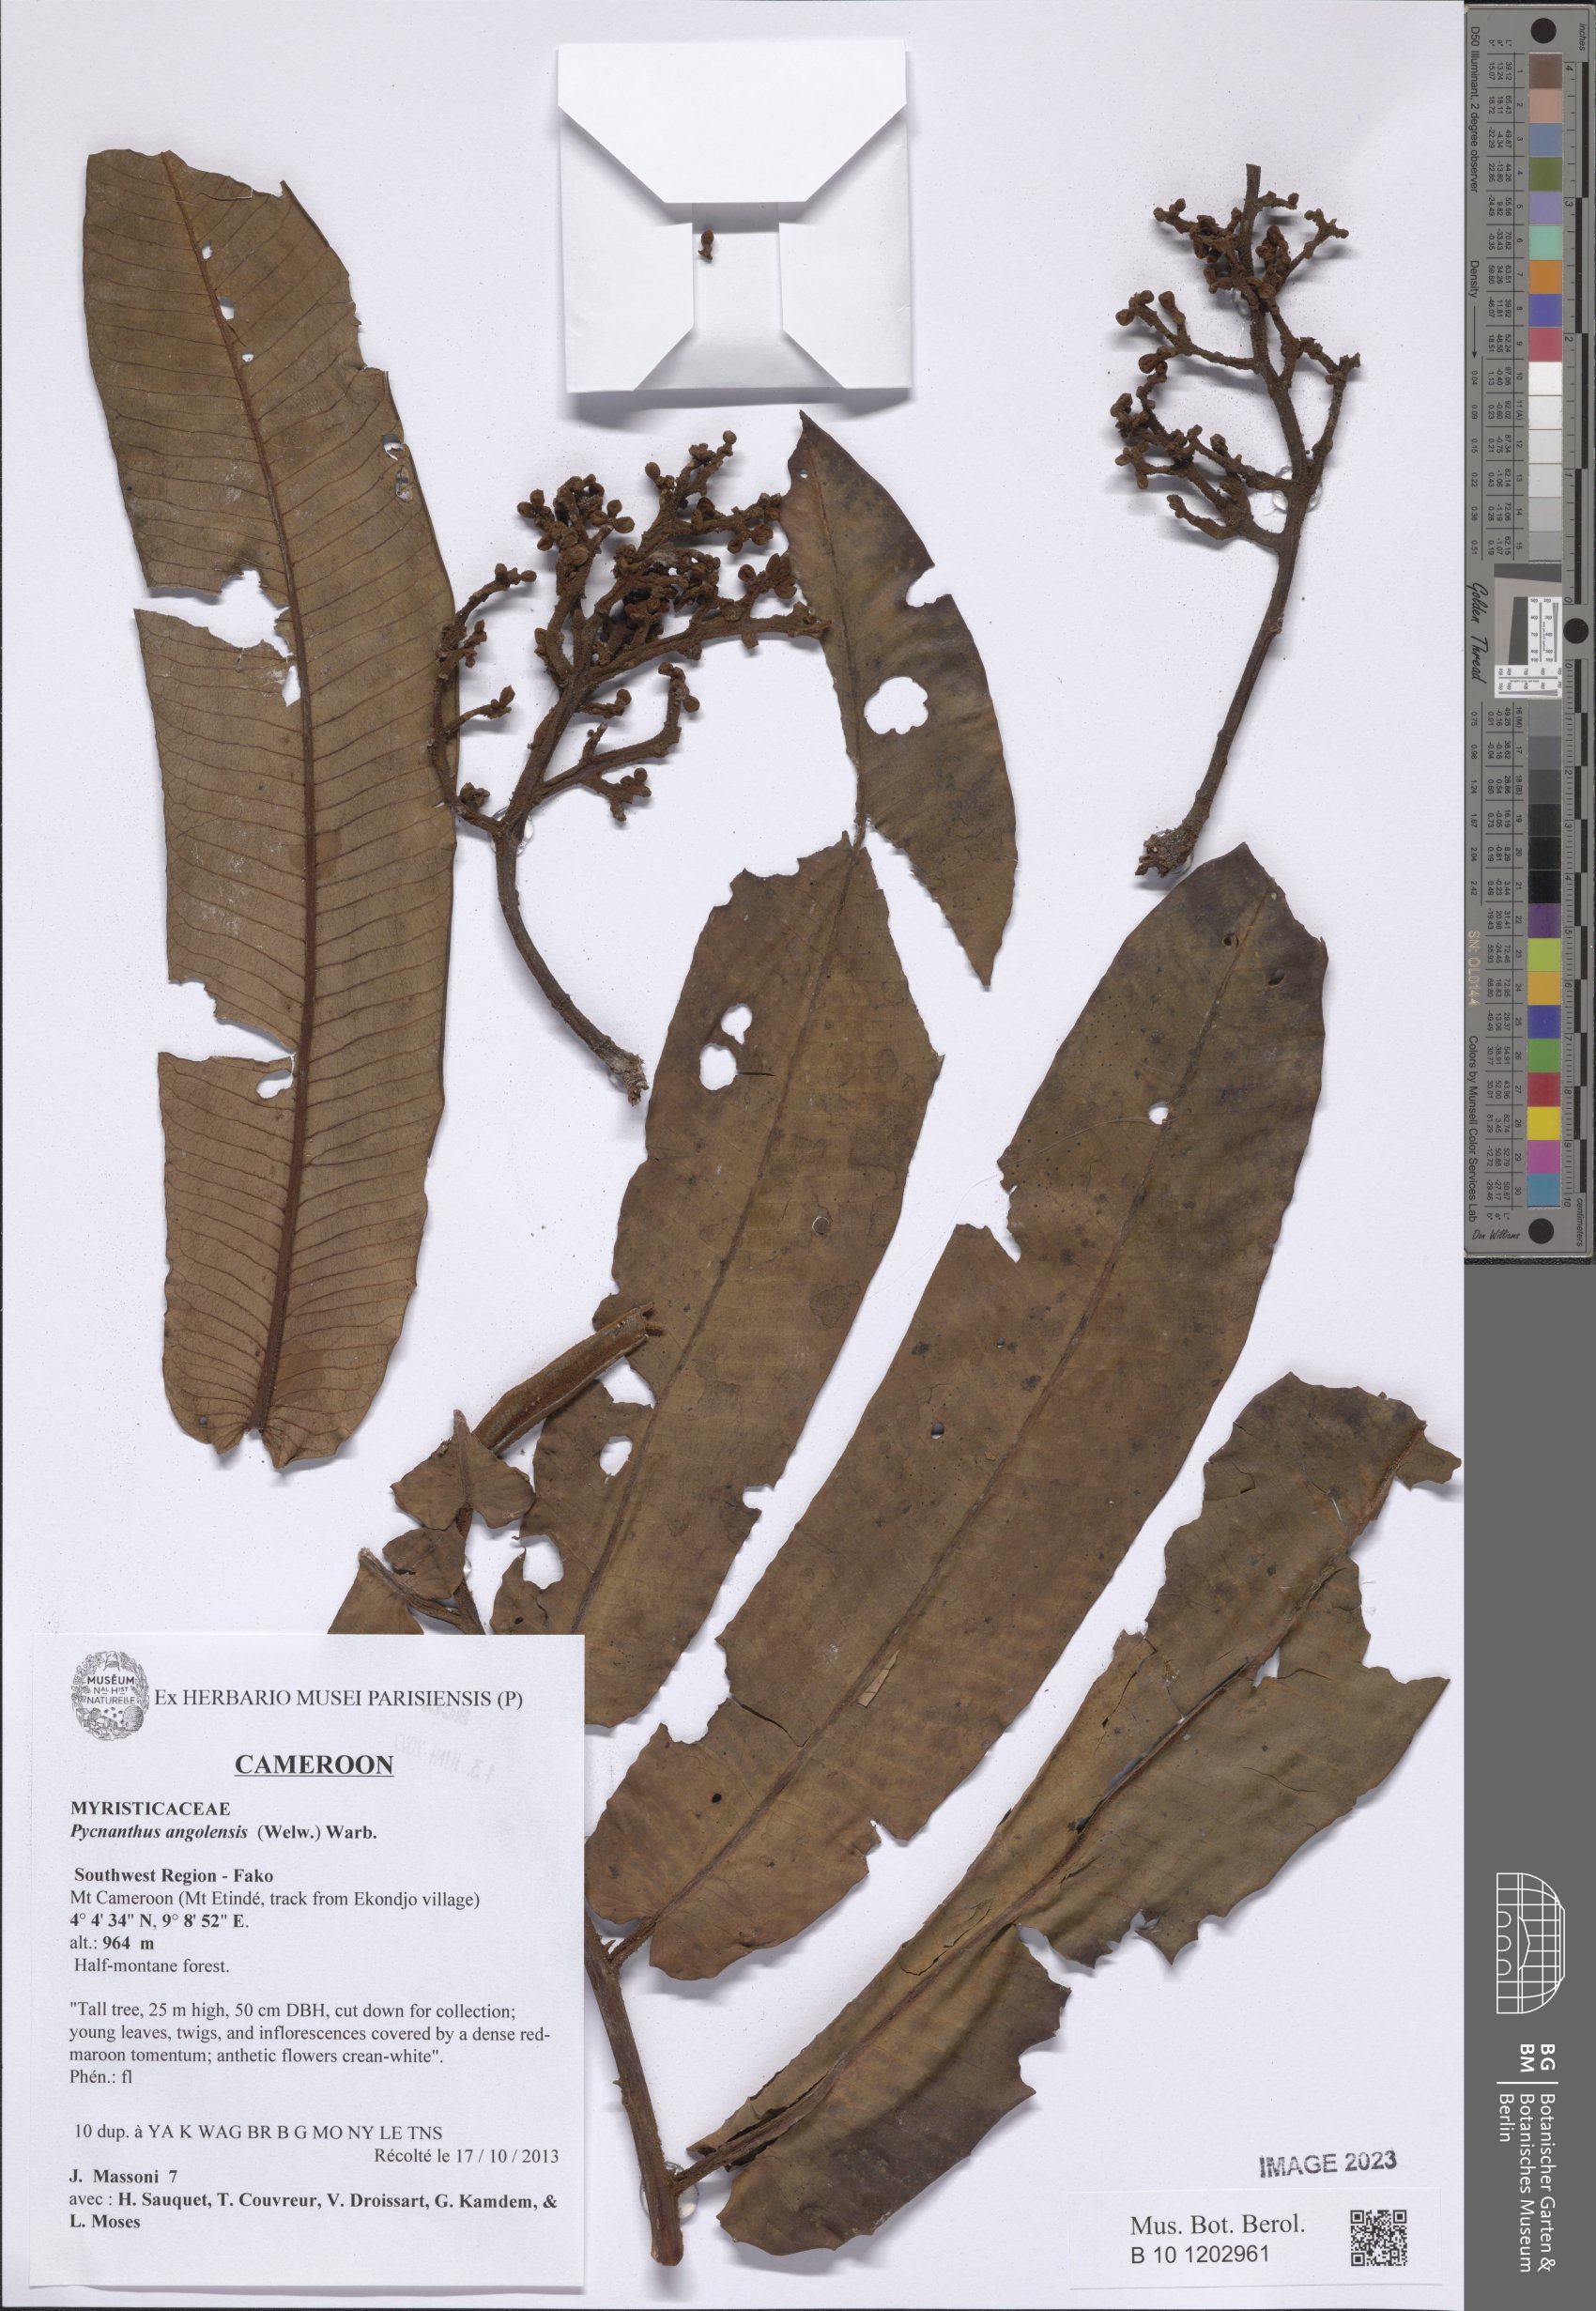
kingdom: Plantae
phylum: Tracheophyta
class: Magnoliopsida
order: Magnoliales
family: Myristicaceae
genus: Pycnanthus
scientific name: Pycnanthus angolensis
